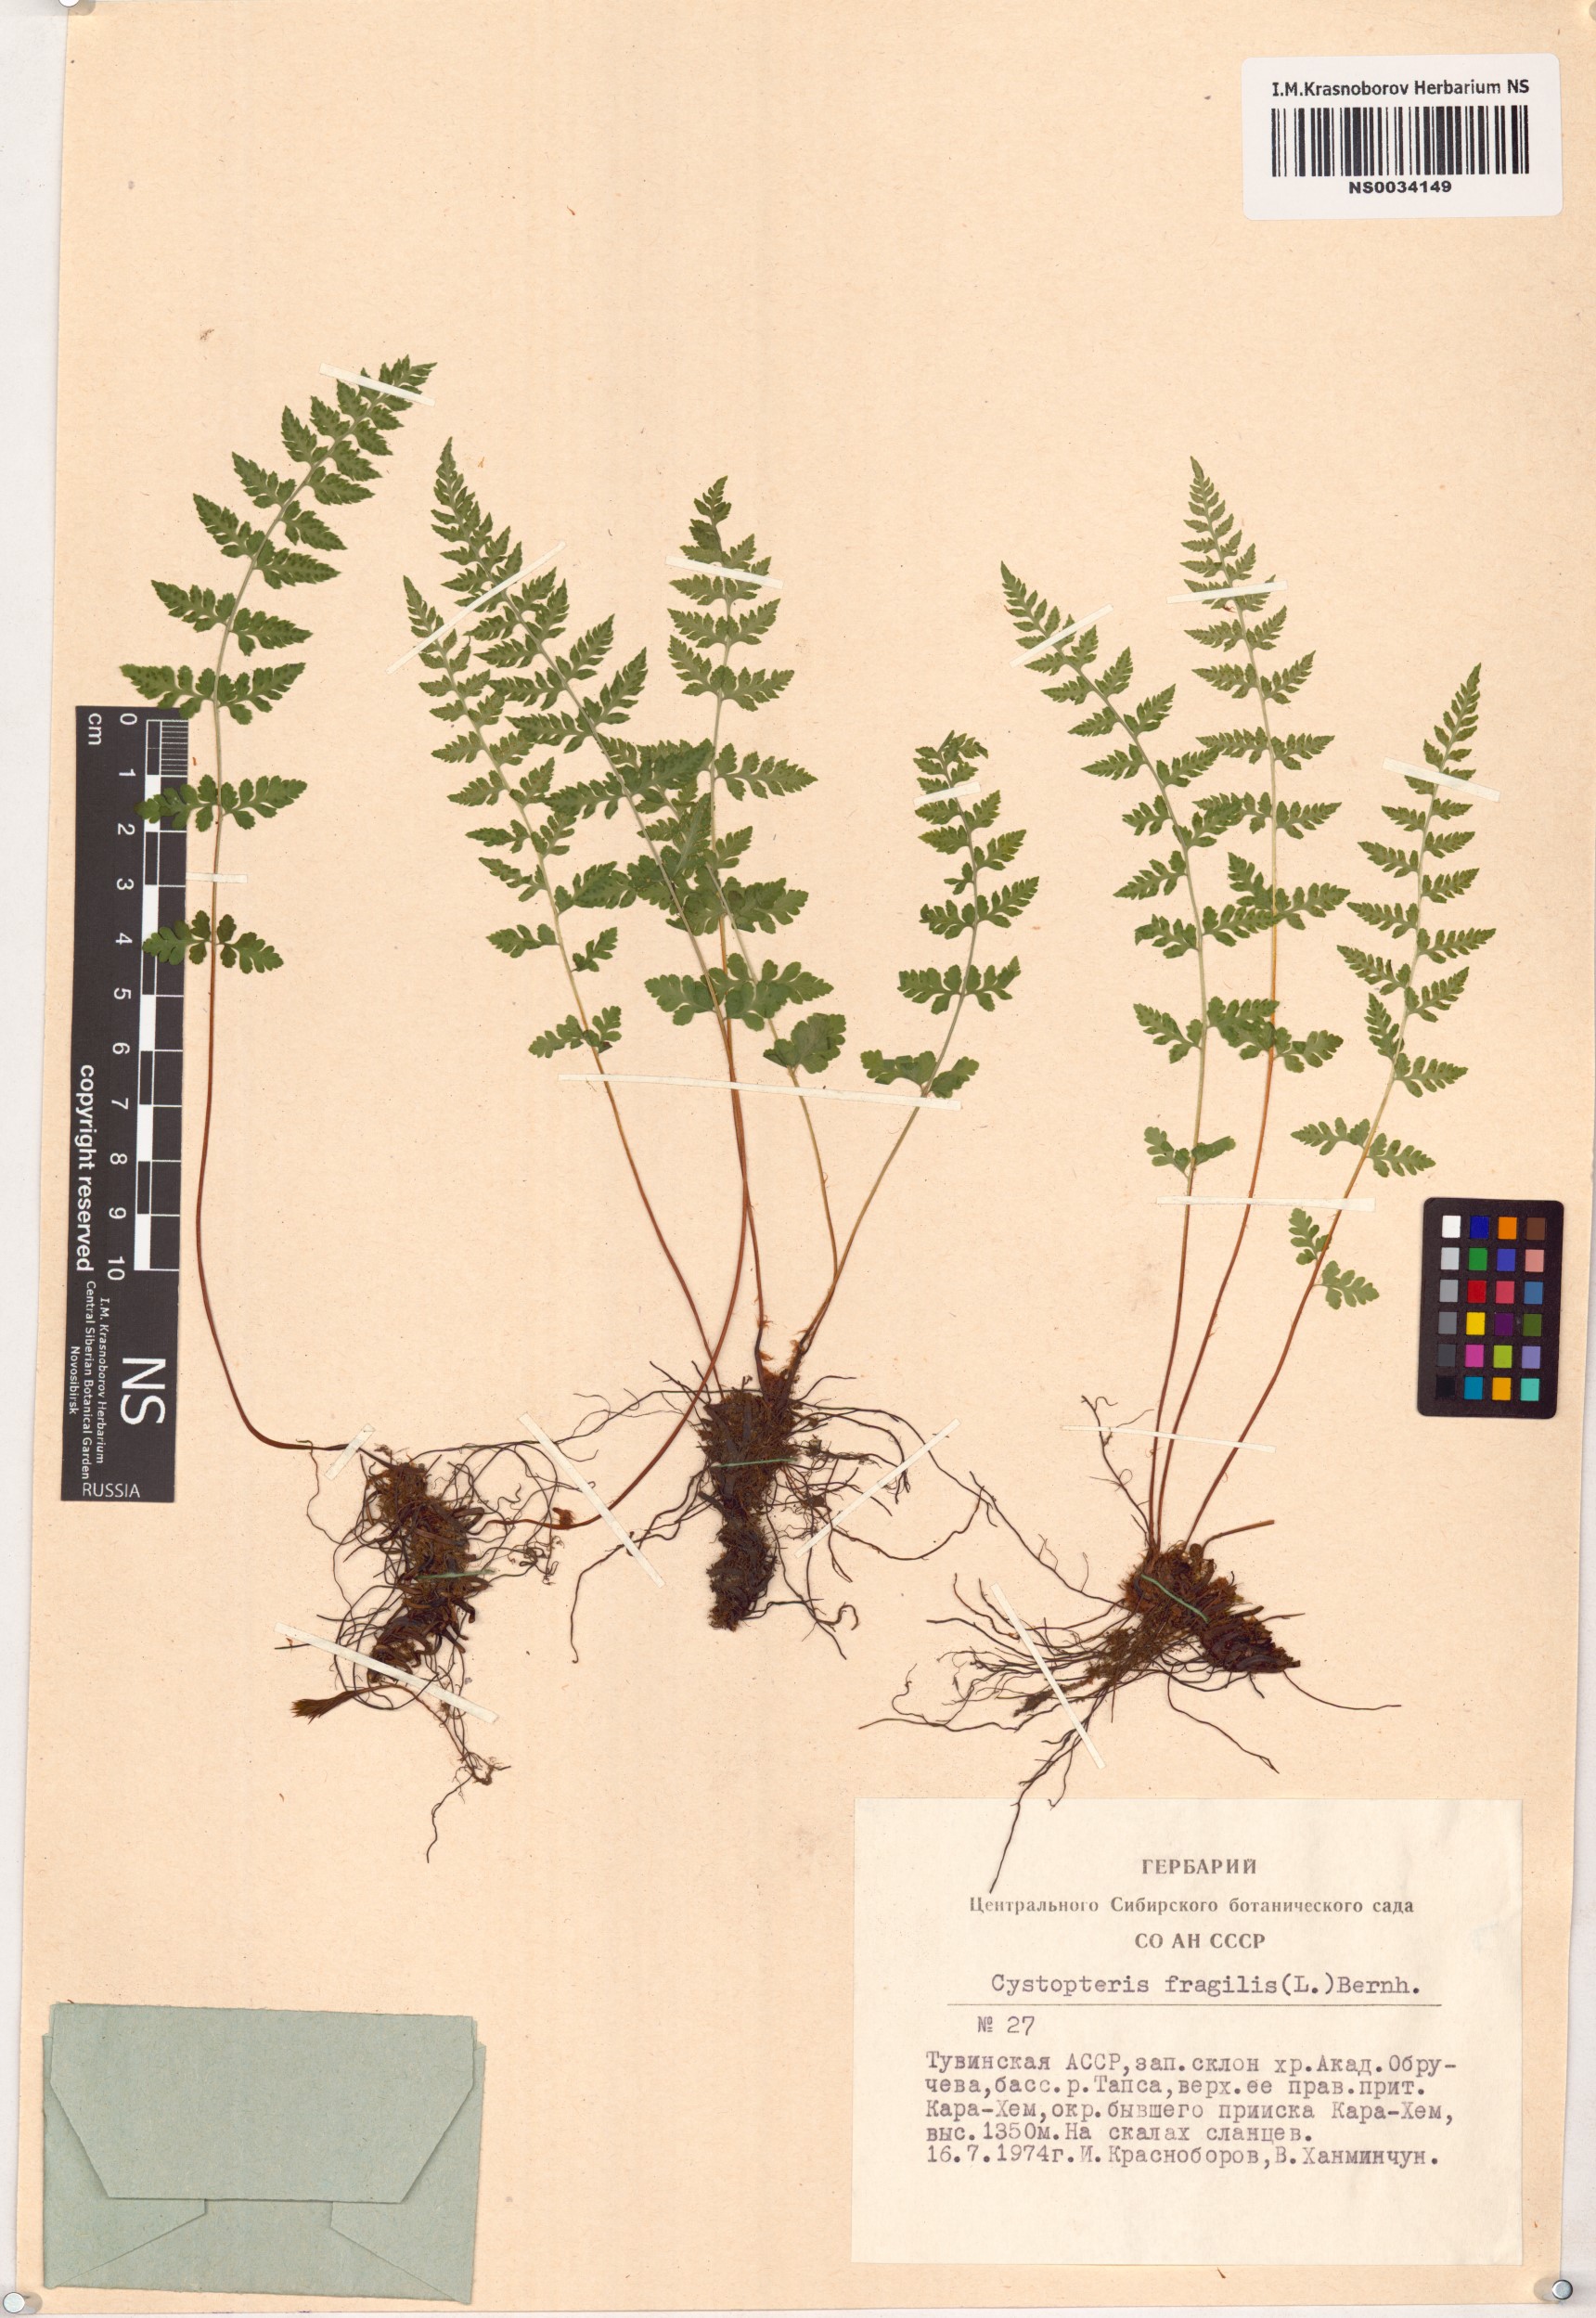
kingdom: Plantae
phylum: Tracheophyta
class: Polypodiopsida
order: Polypodiales
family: Cystopteridaceae
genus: Cystopteris
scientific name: Cystopteris fragilis
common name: Brittle bladder fern
